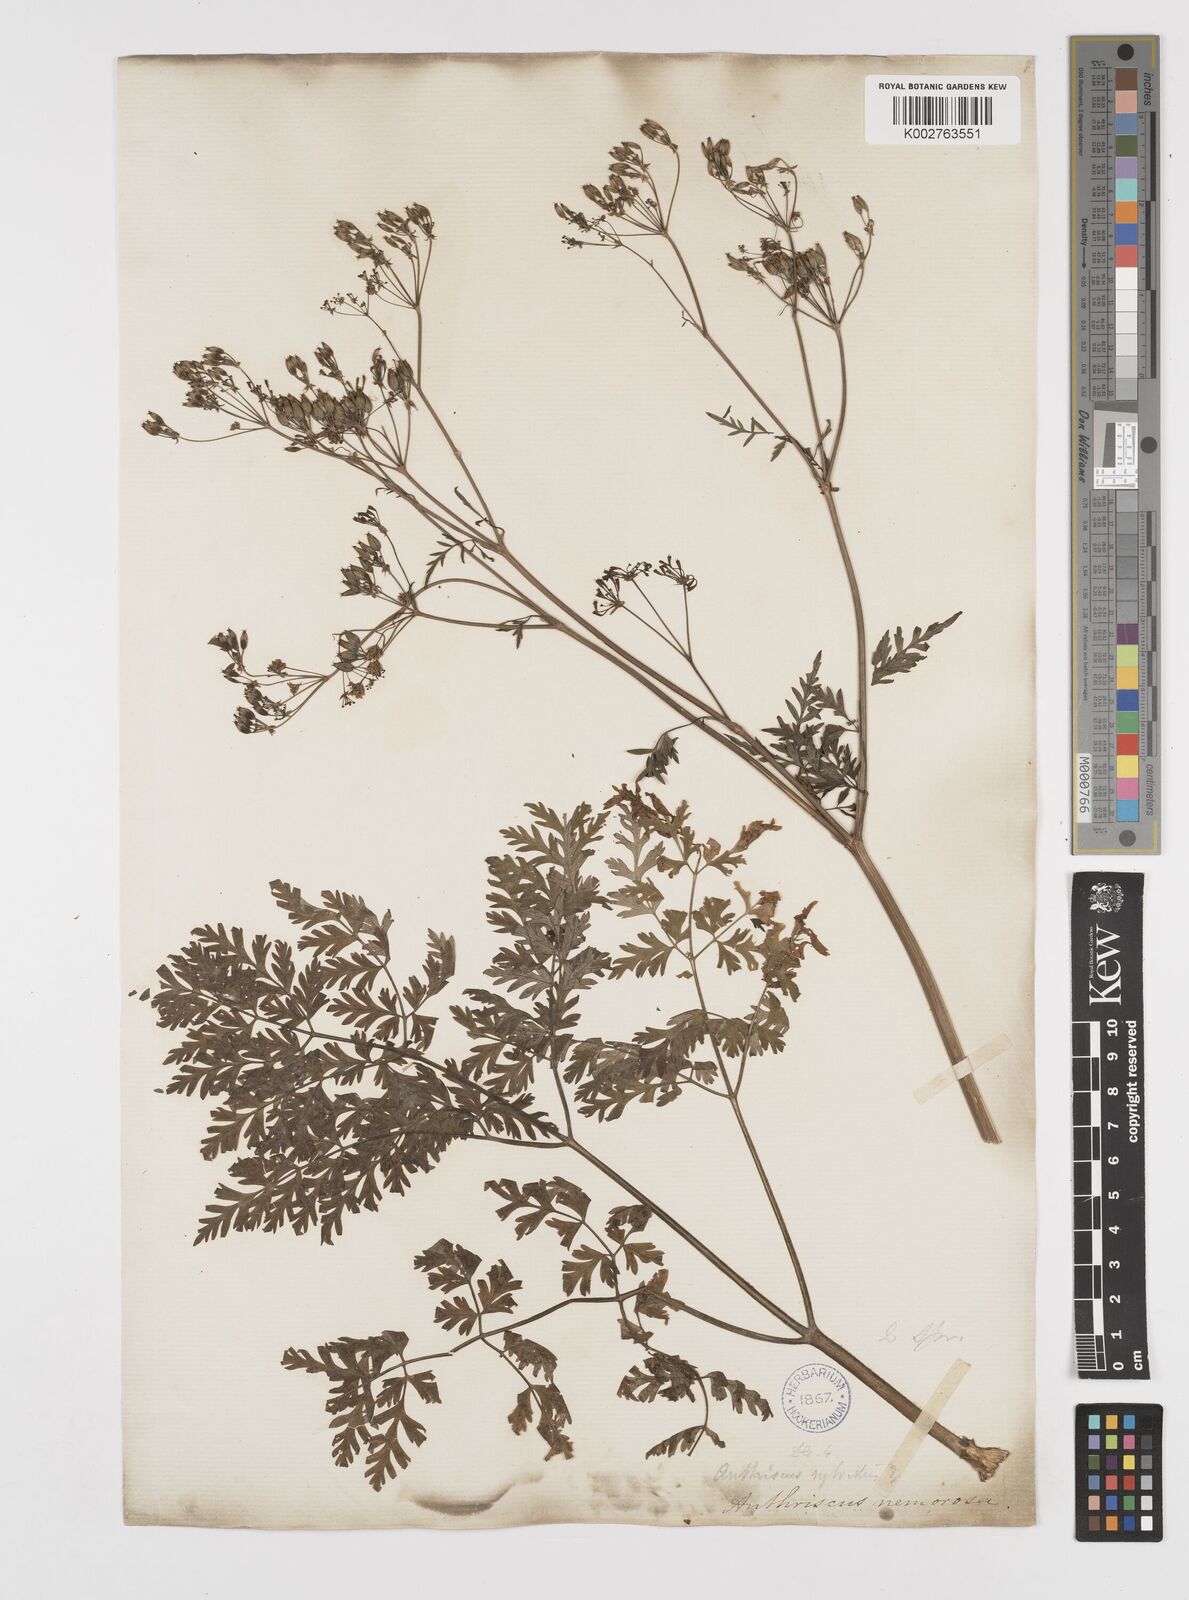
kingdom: Plantae
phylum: Tracheophyta
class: Magnoliopsida
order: Apiales
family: Apiaceae
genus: Anthriscus
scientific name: Anthriscus
